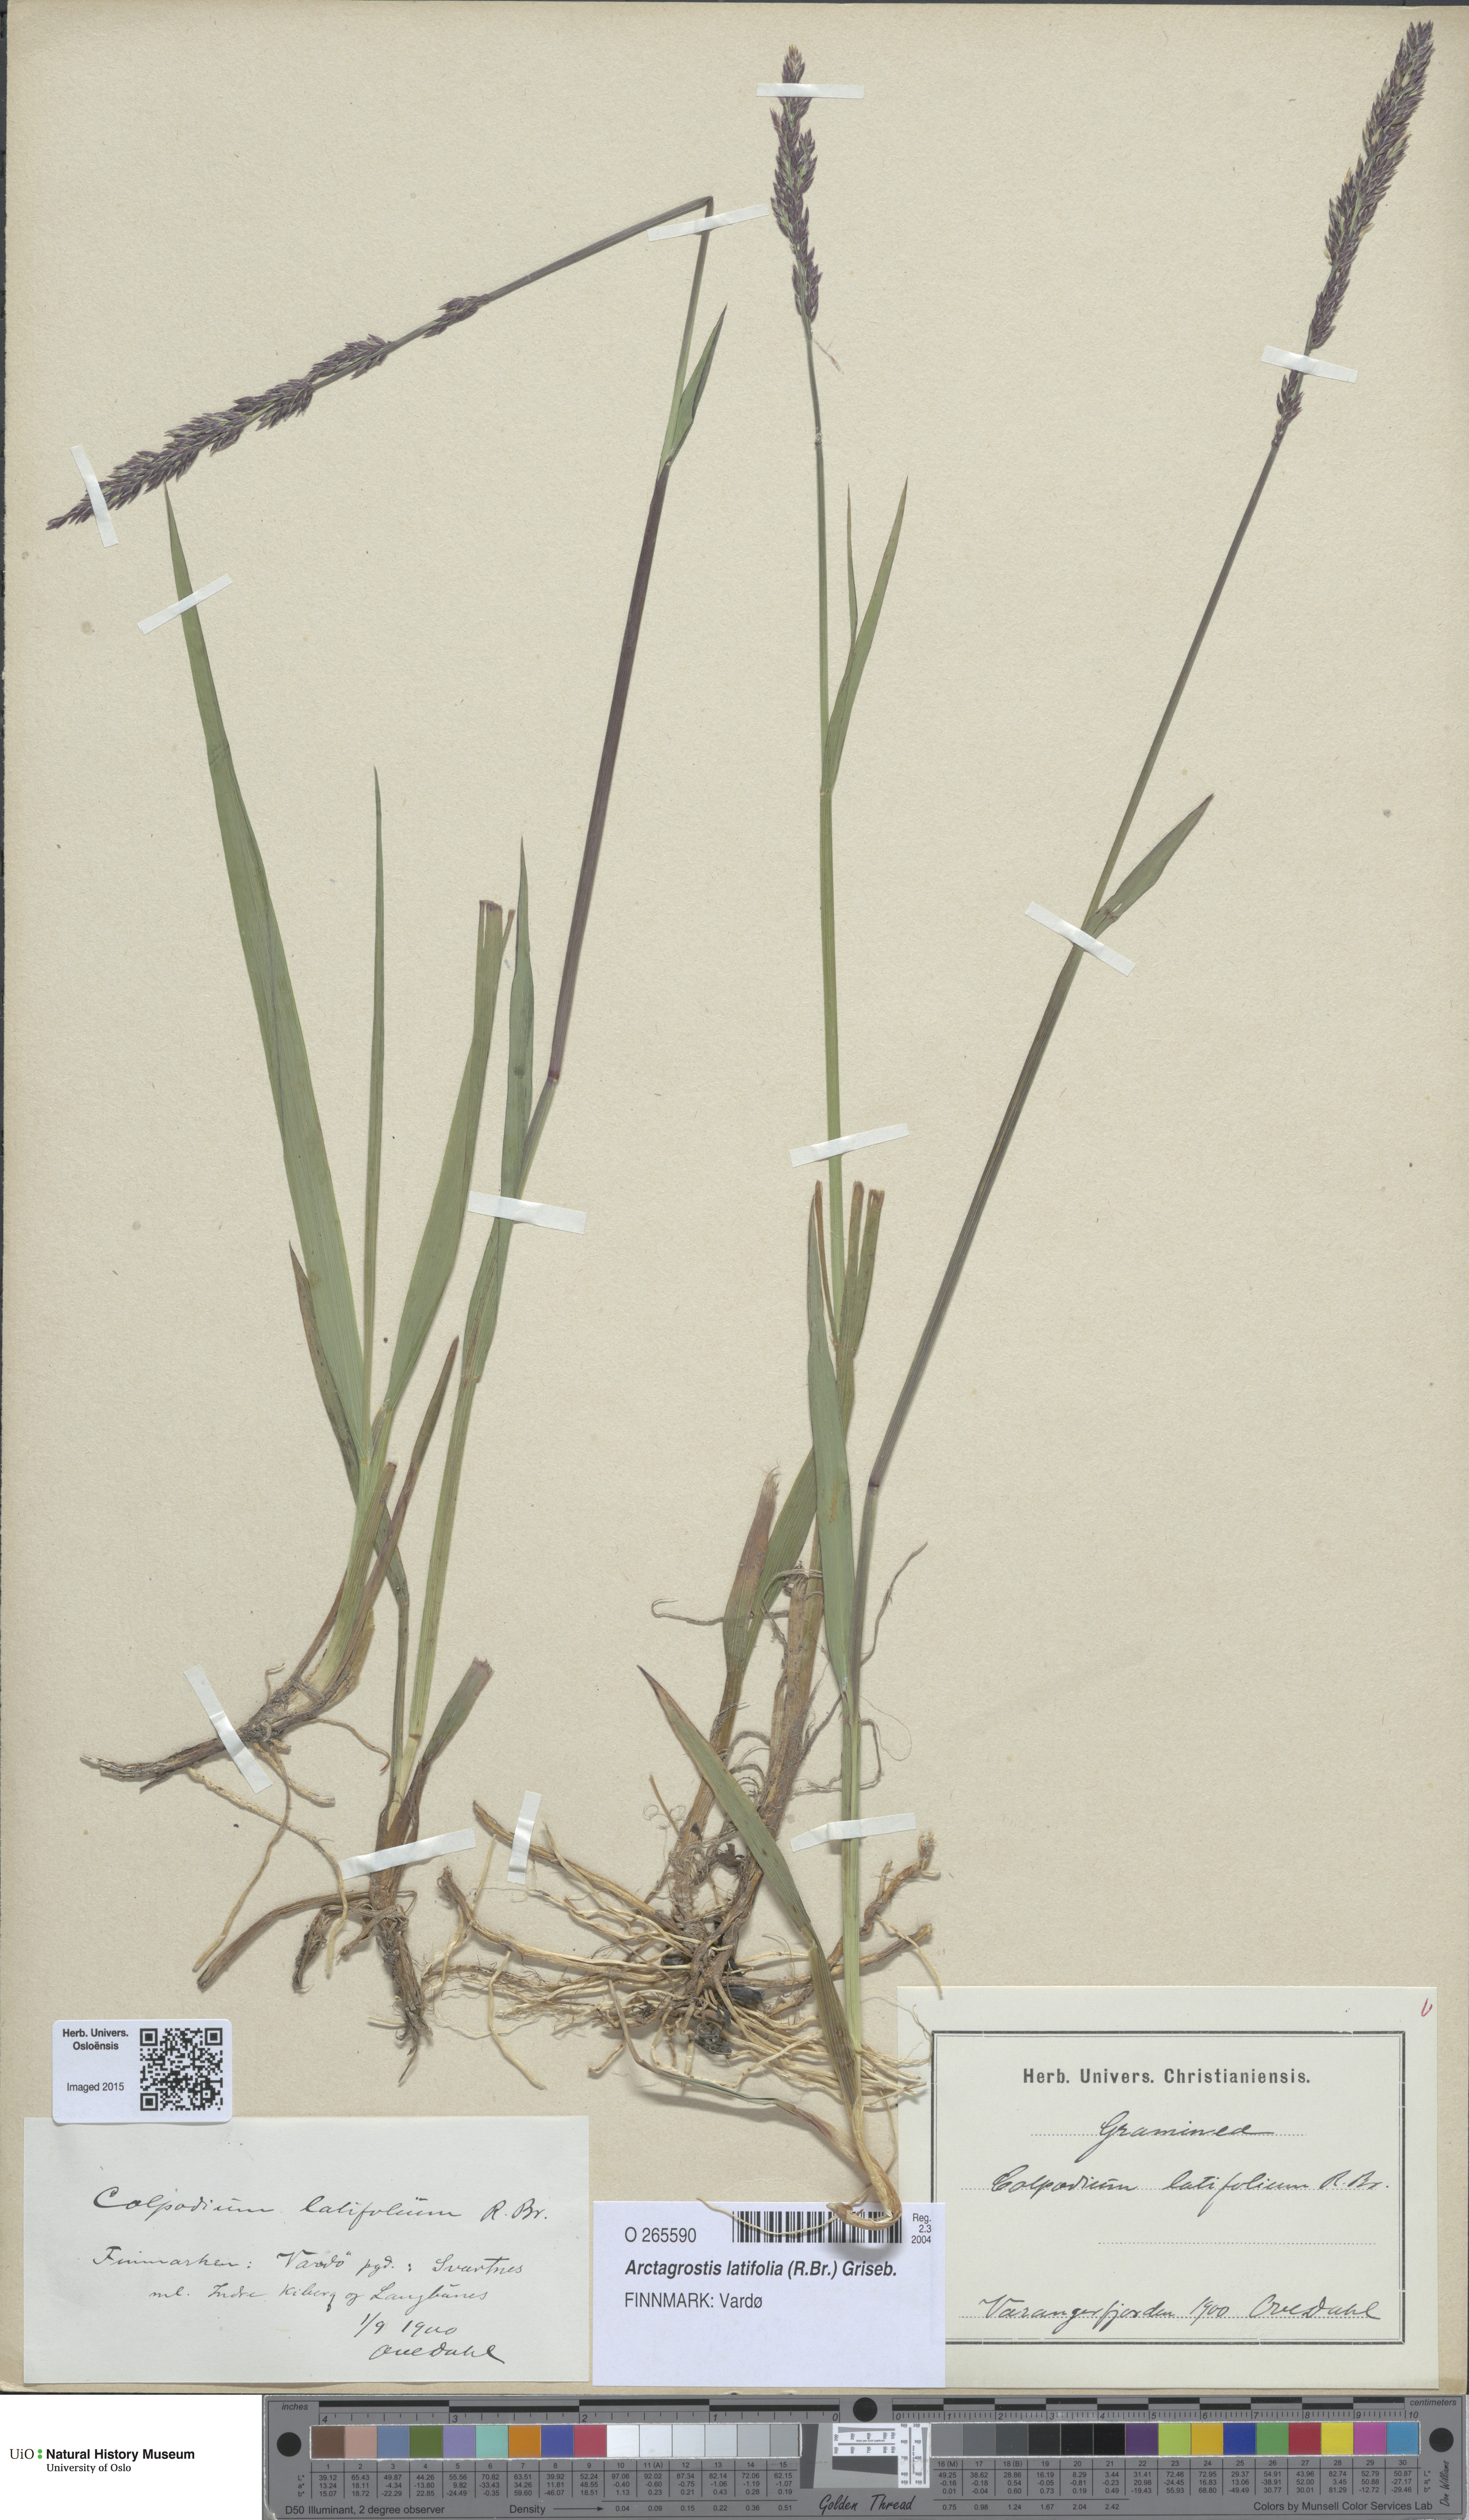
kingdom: Plantae
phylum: Tracheophyta
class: Liliopsida
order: Poales
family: Poaceae
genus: Arctagrostis
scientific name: Arctagrostis latifolia
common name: Arctic grass
